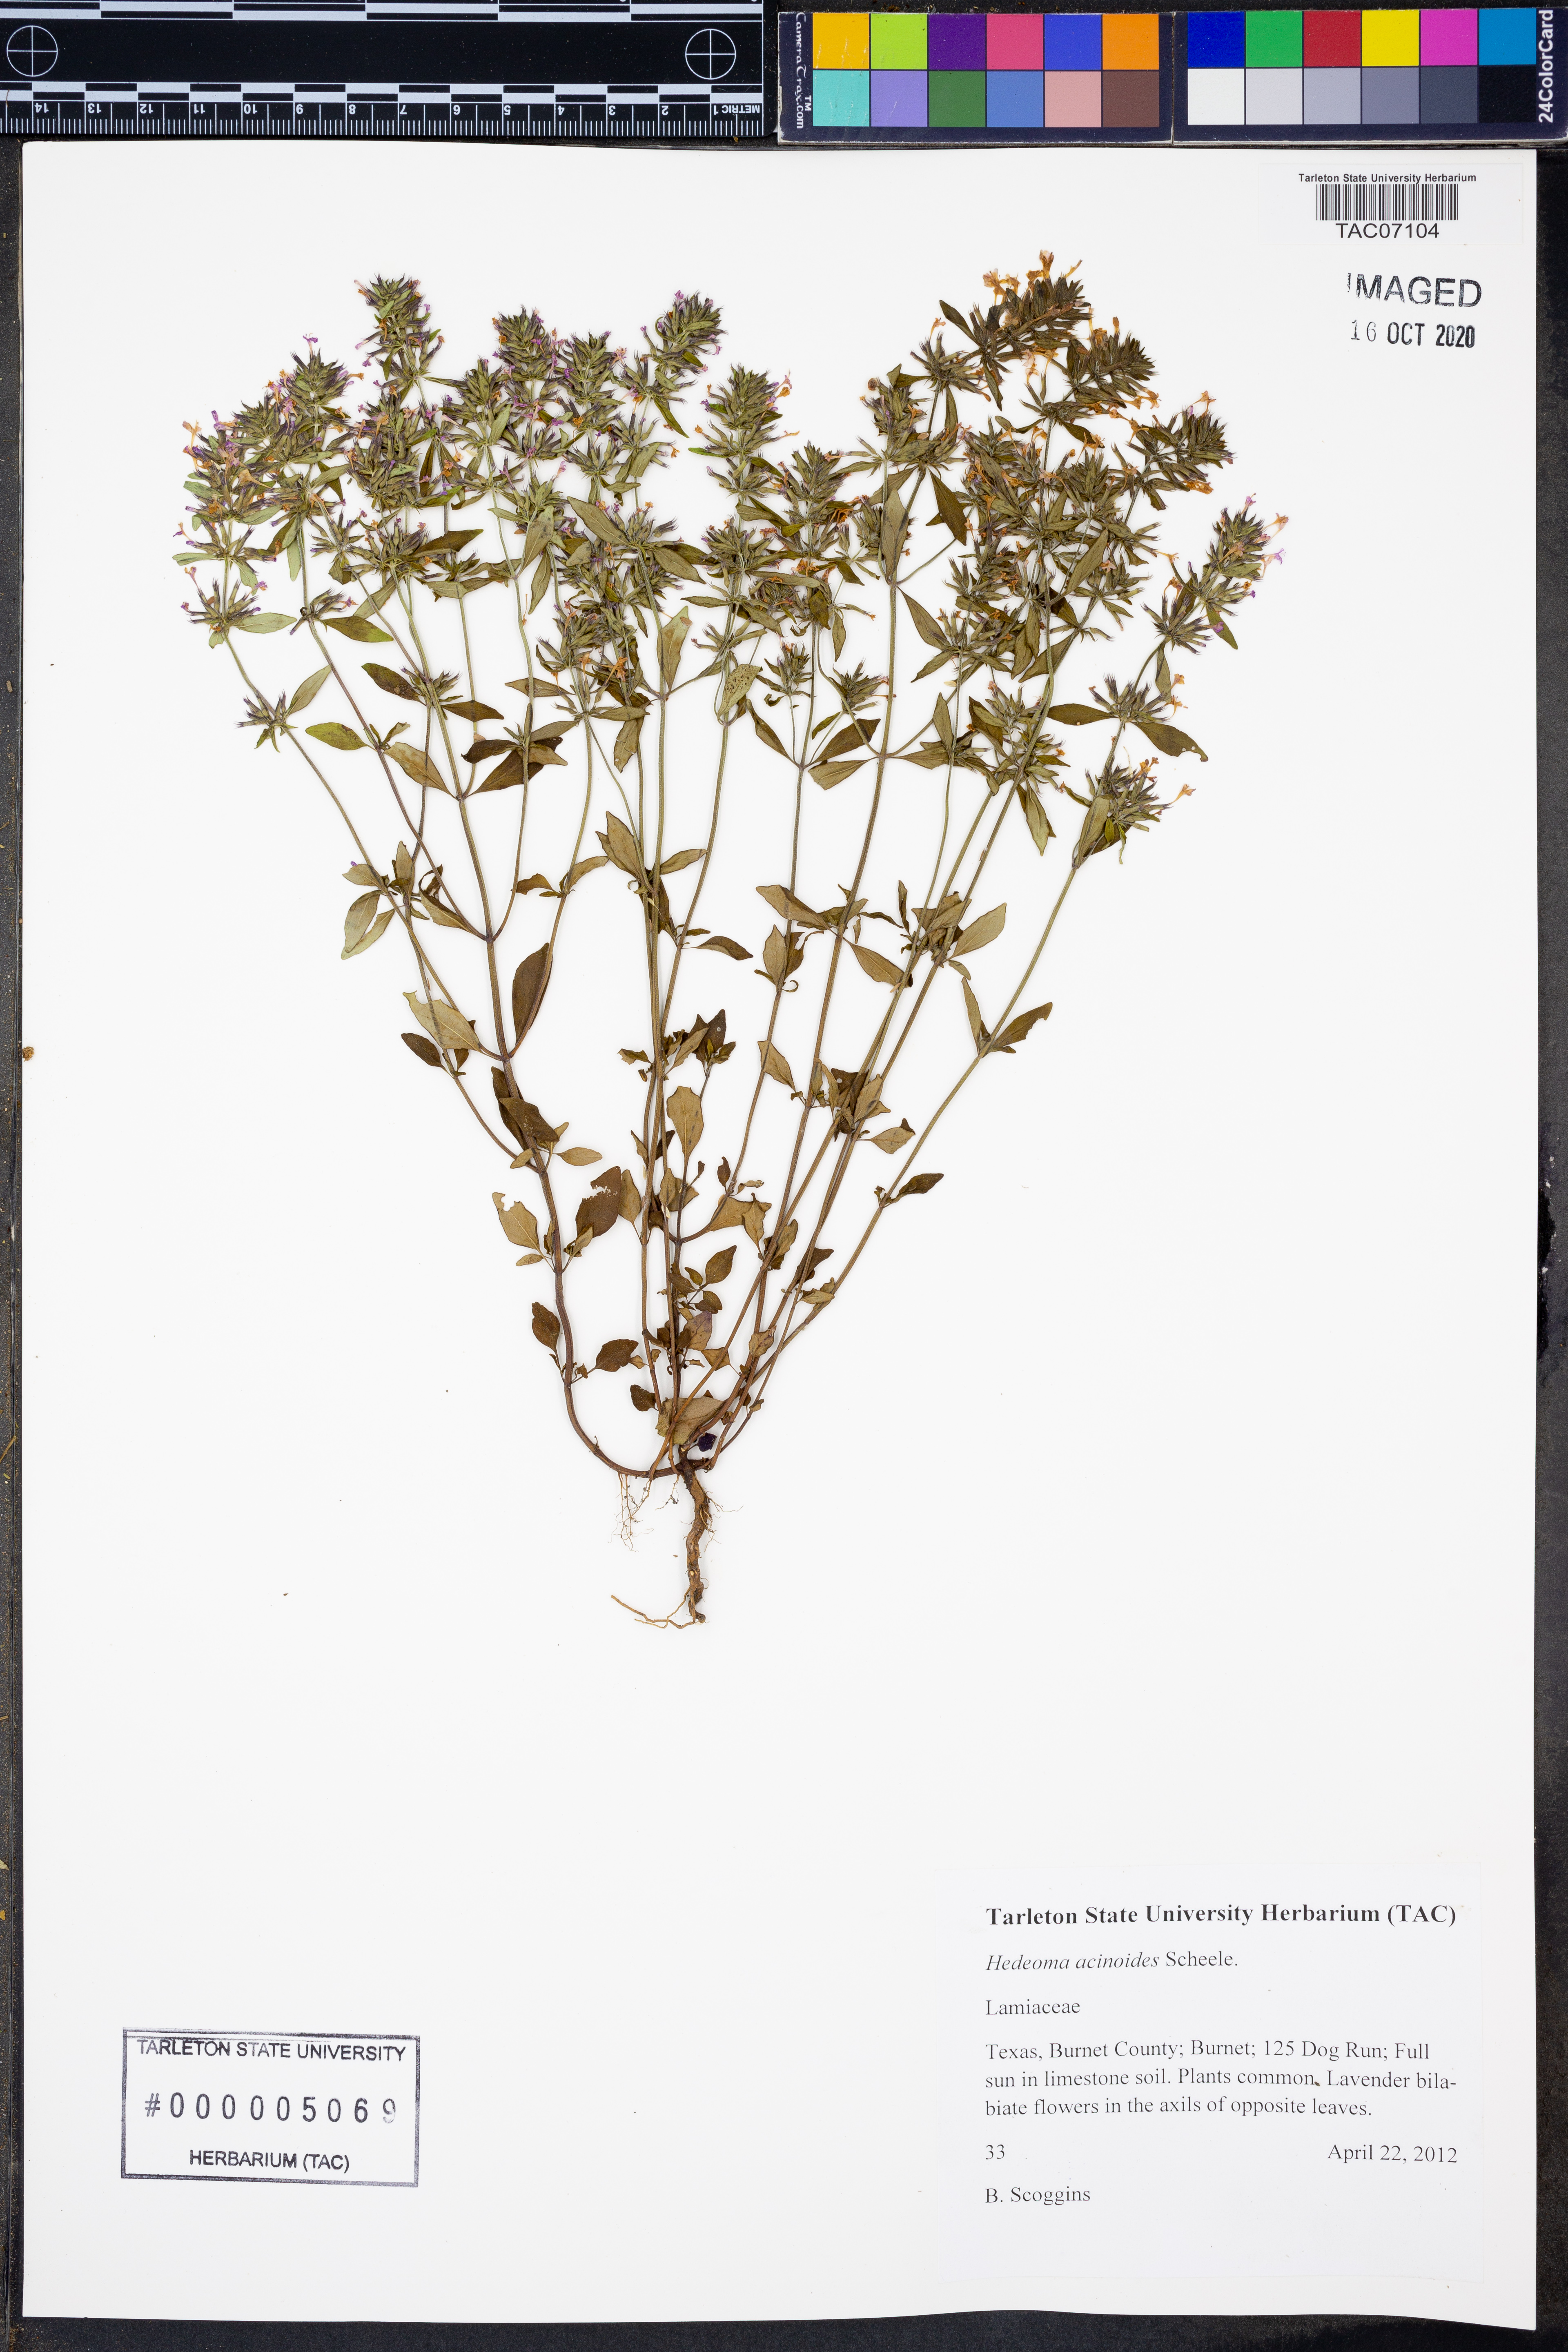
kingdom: Plantae
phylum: Tracheophyta
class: Magnoliopsida
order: Lamiales
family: Lamiaceae
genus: Hedeoma
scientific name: Hedeoma acinoides
